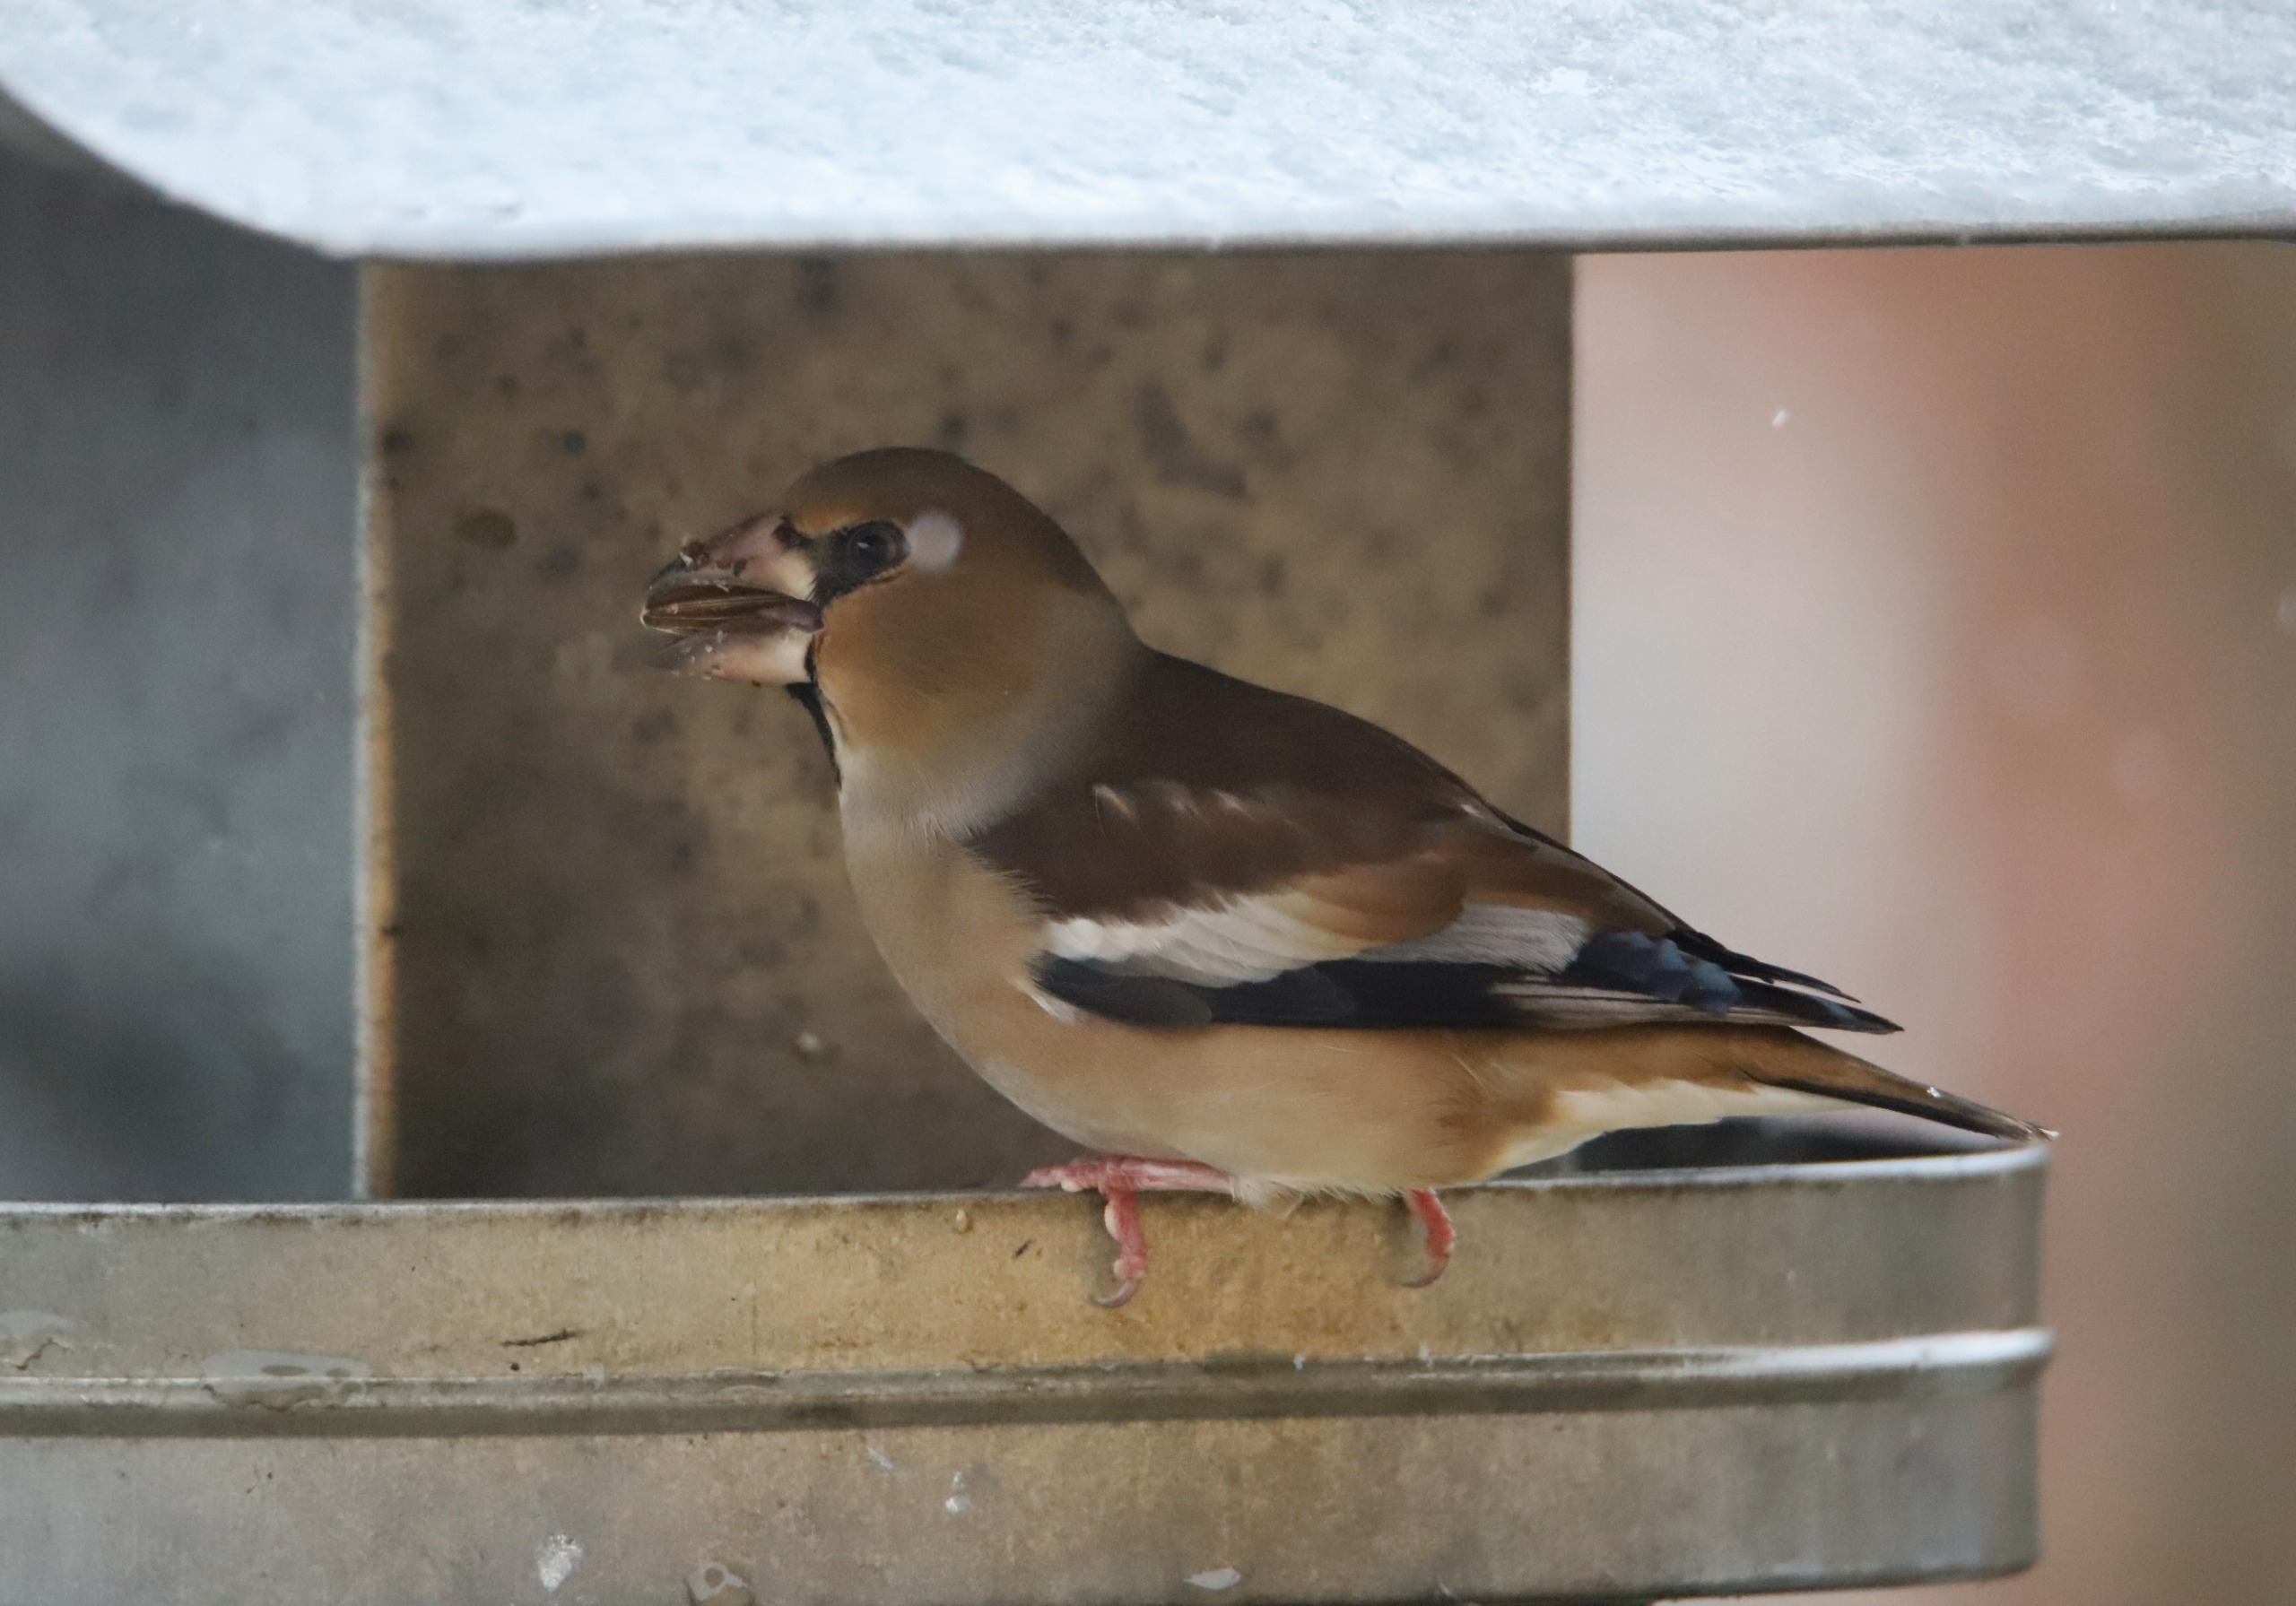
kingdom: Animalia
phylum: Chordata
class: Aves
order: Passeriformes
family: Fringillidae
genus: Coccothraustes
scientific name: Coccothraustes coccothraustes
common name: Kernebider
